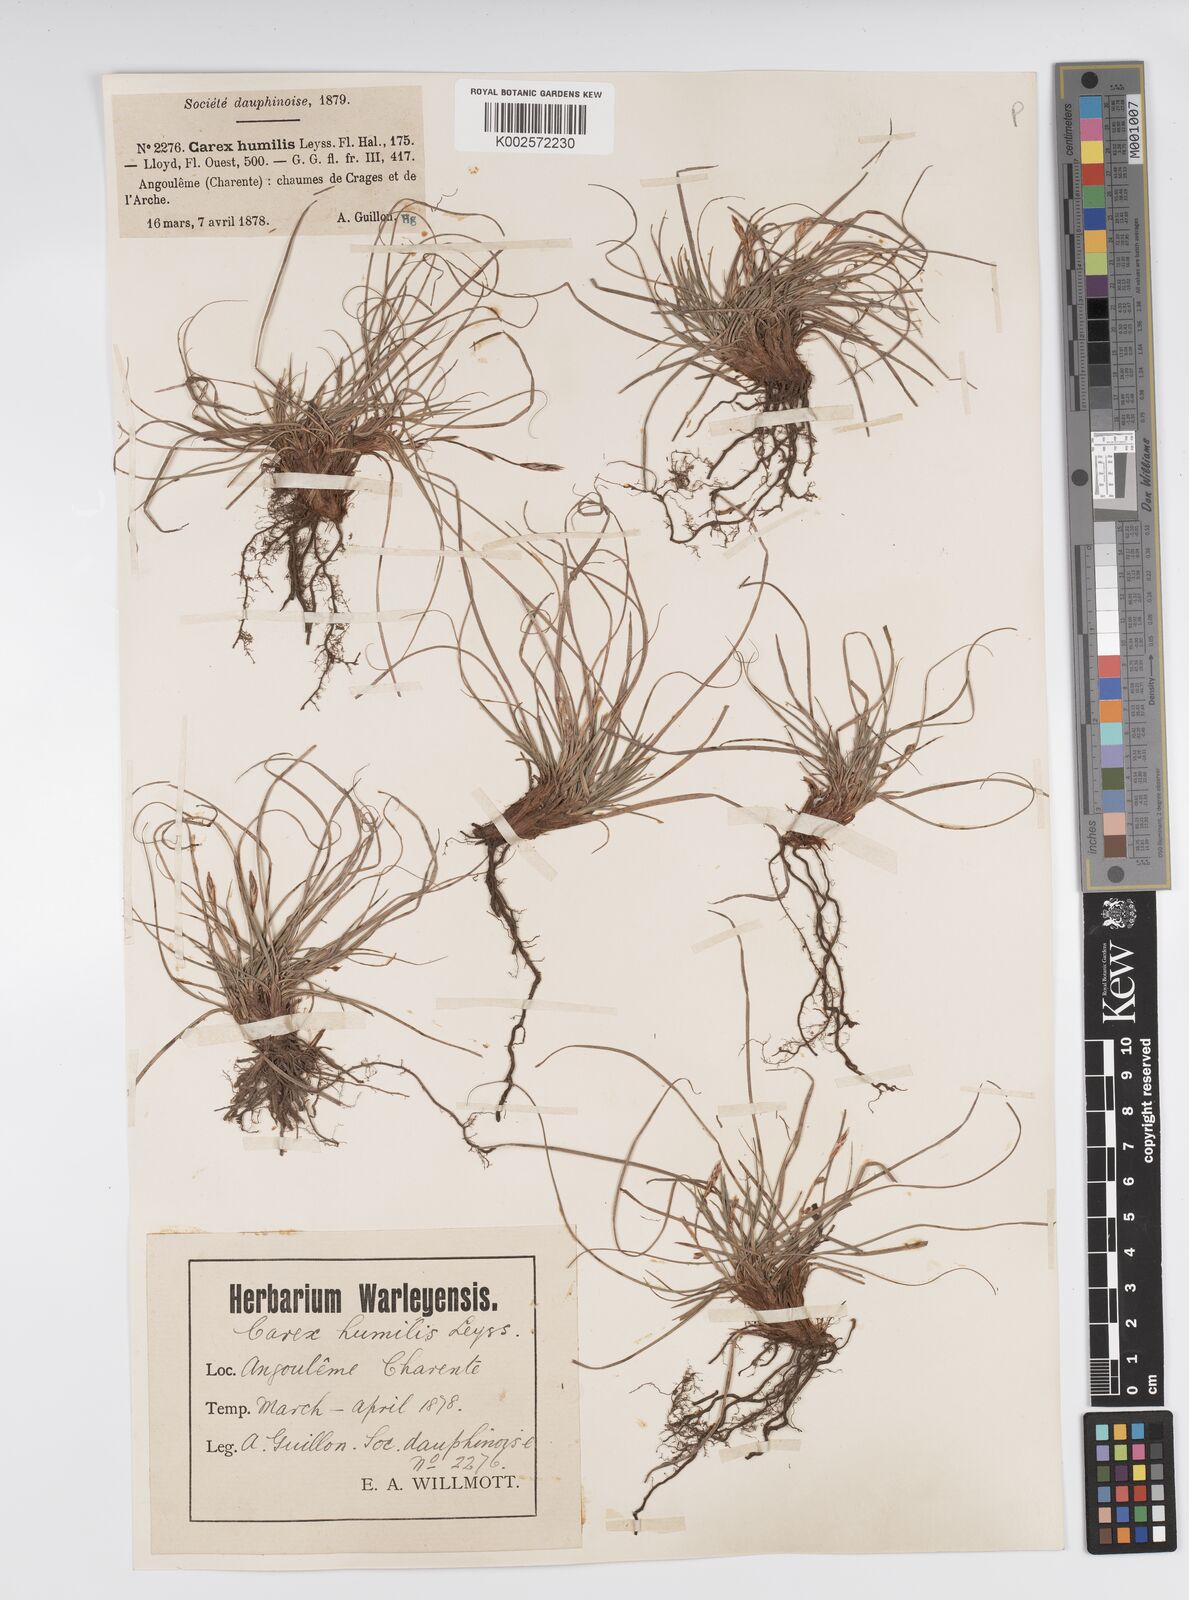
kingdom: Plantae
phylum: Tracheophyta
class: Liliopsida
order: Poales
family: Cyperaceae
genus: Carex
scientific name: Carex humilis
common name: Dwarf sedge
